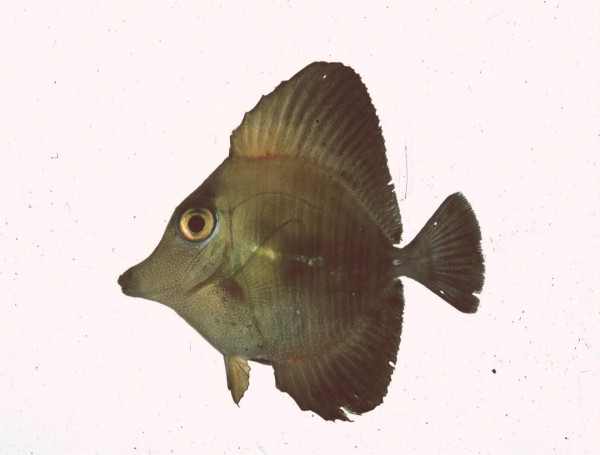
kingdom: Animalia
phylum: Chordata
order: Perciformes
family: Acanthuridae
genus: Zebrasoma
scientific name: Zebrasoma scopas
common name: Twotone tang
